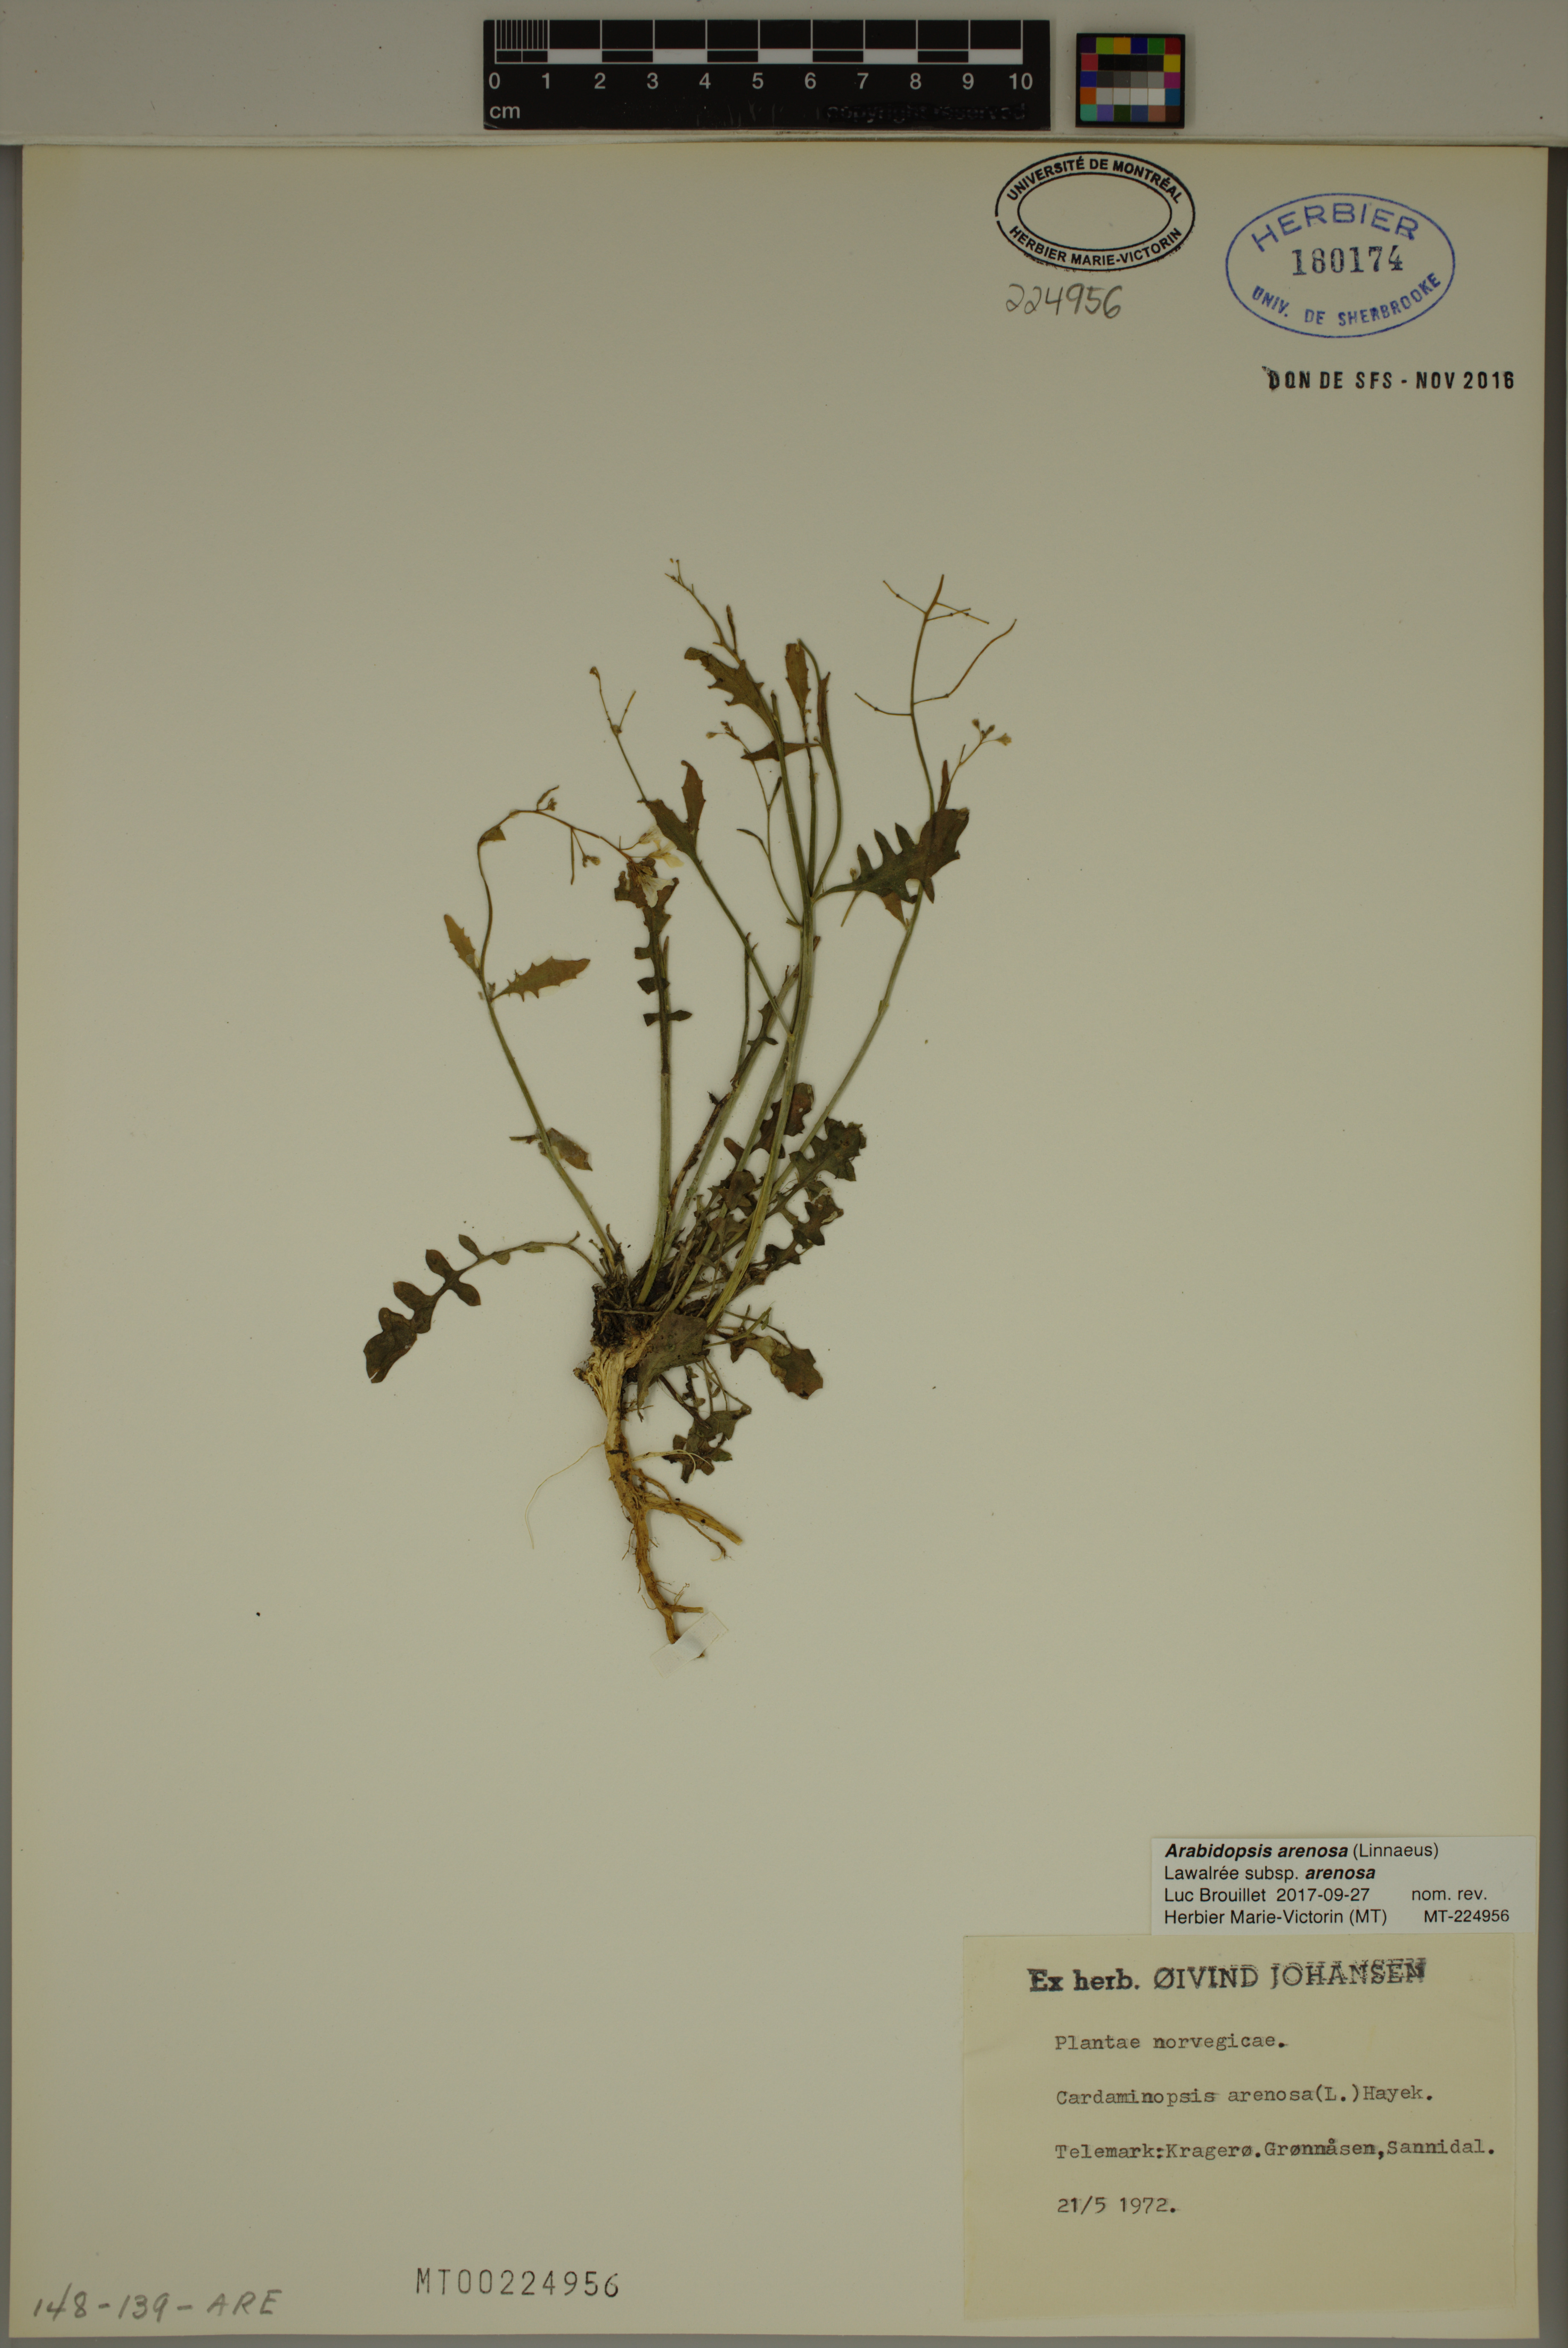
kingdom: Plantae
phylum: Tracheophyta
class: Magnoliopsida
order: Brassicales
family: Brassicaceae
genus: Arabidopsis
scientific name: Arabidopsis arenosa
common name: Sand rock-cress
